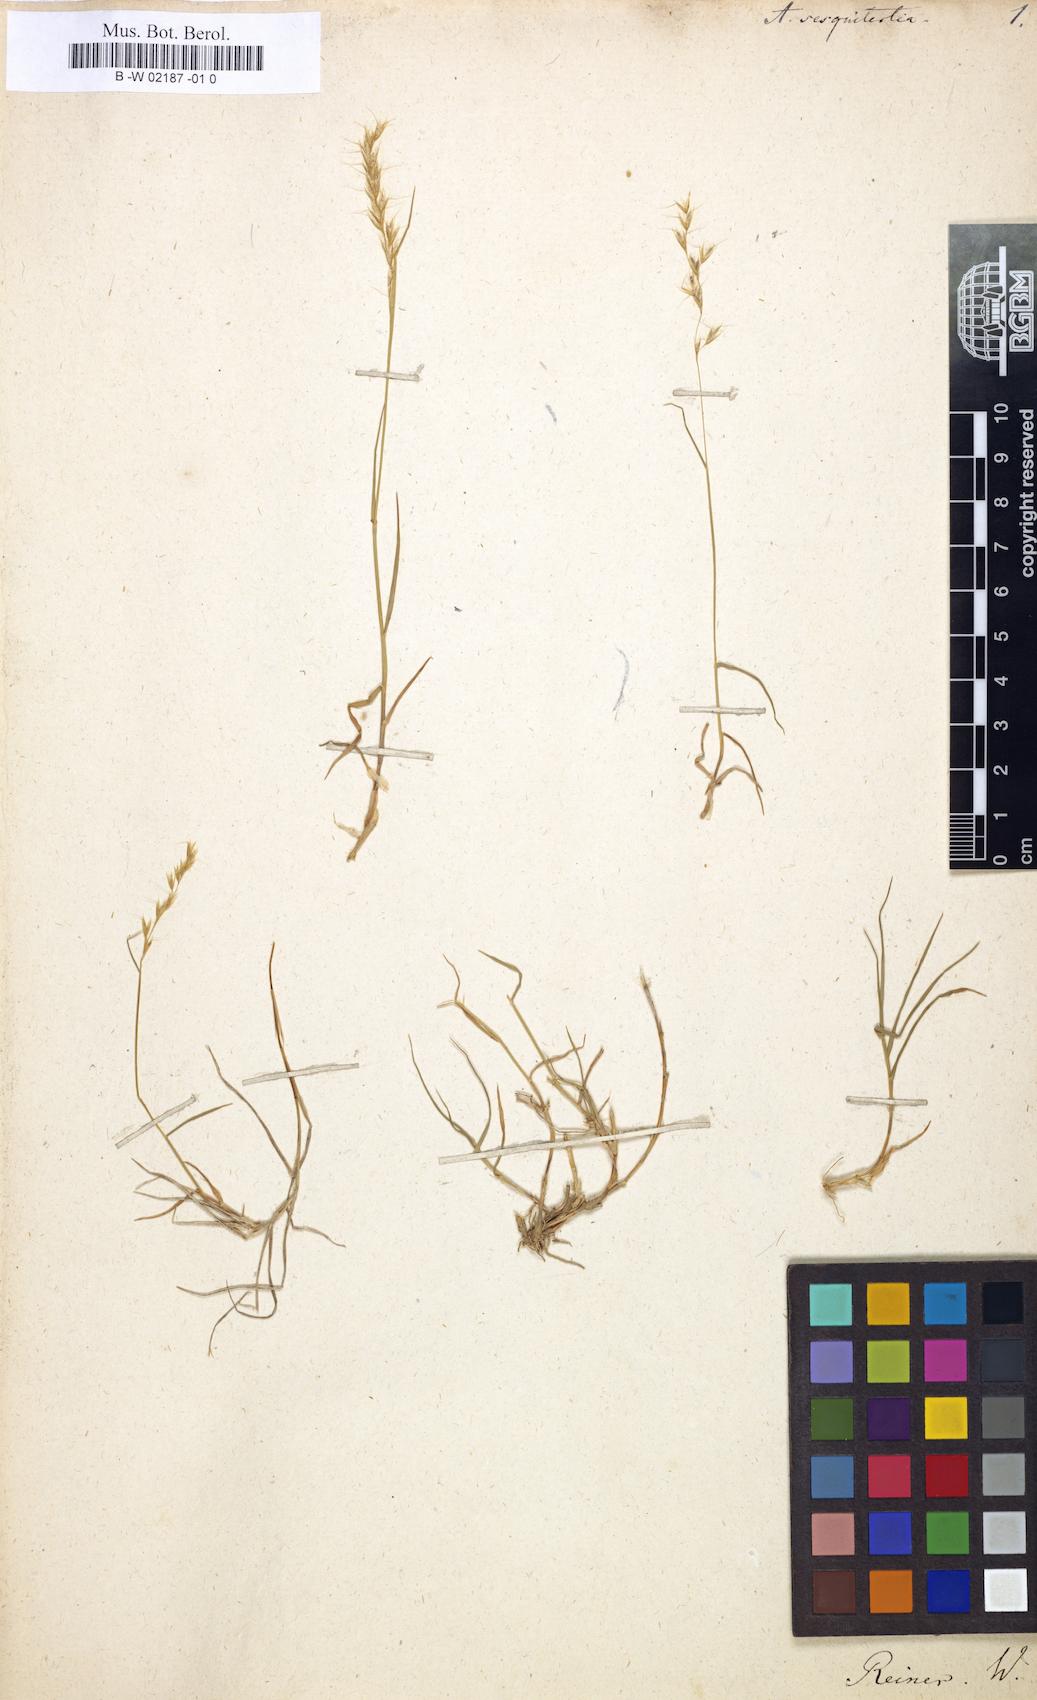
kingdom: Plantae
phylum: Tracheophyta
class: Liliopsida
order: Poales
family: Poaceae
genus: Avena
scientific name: Avena sesquitertia
